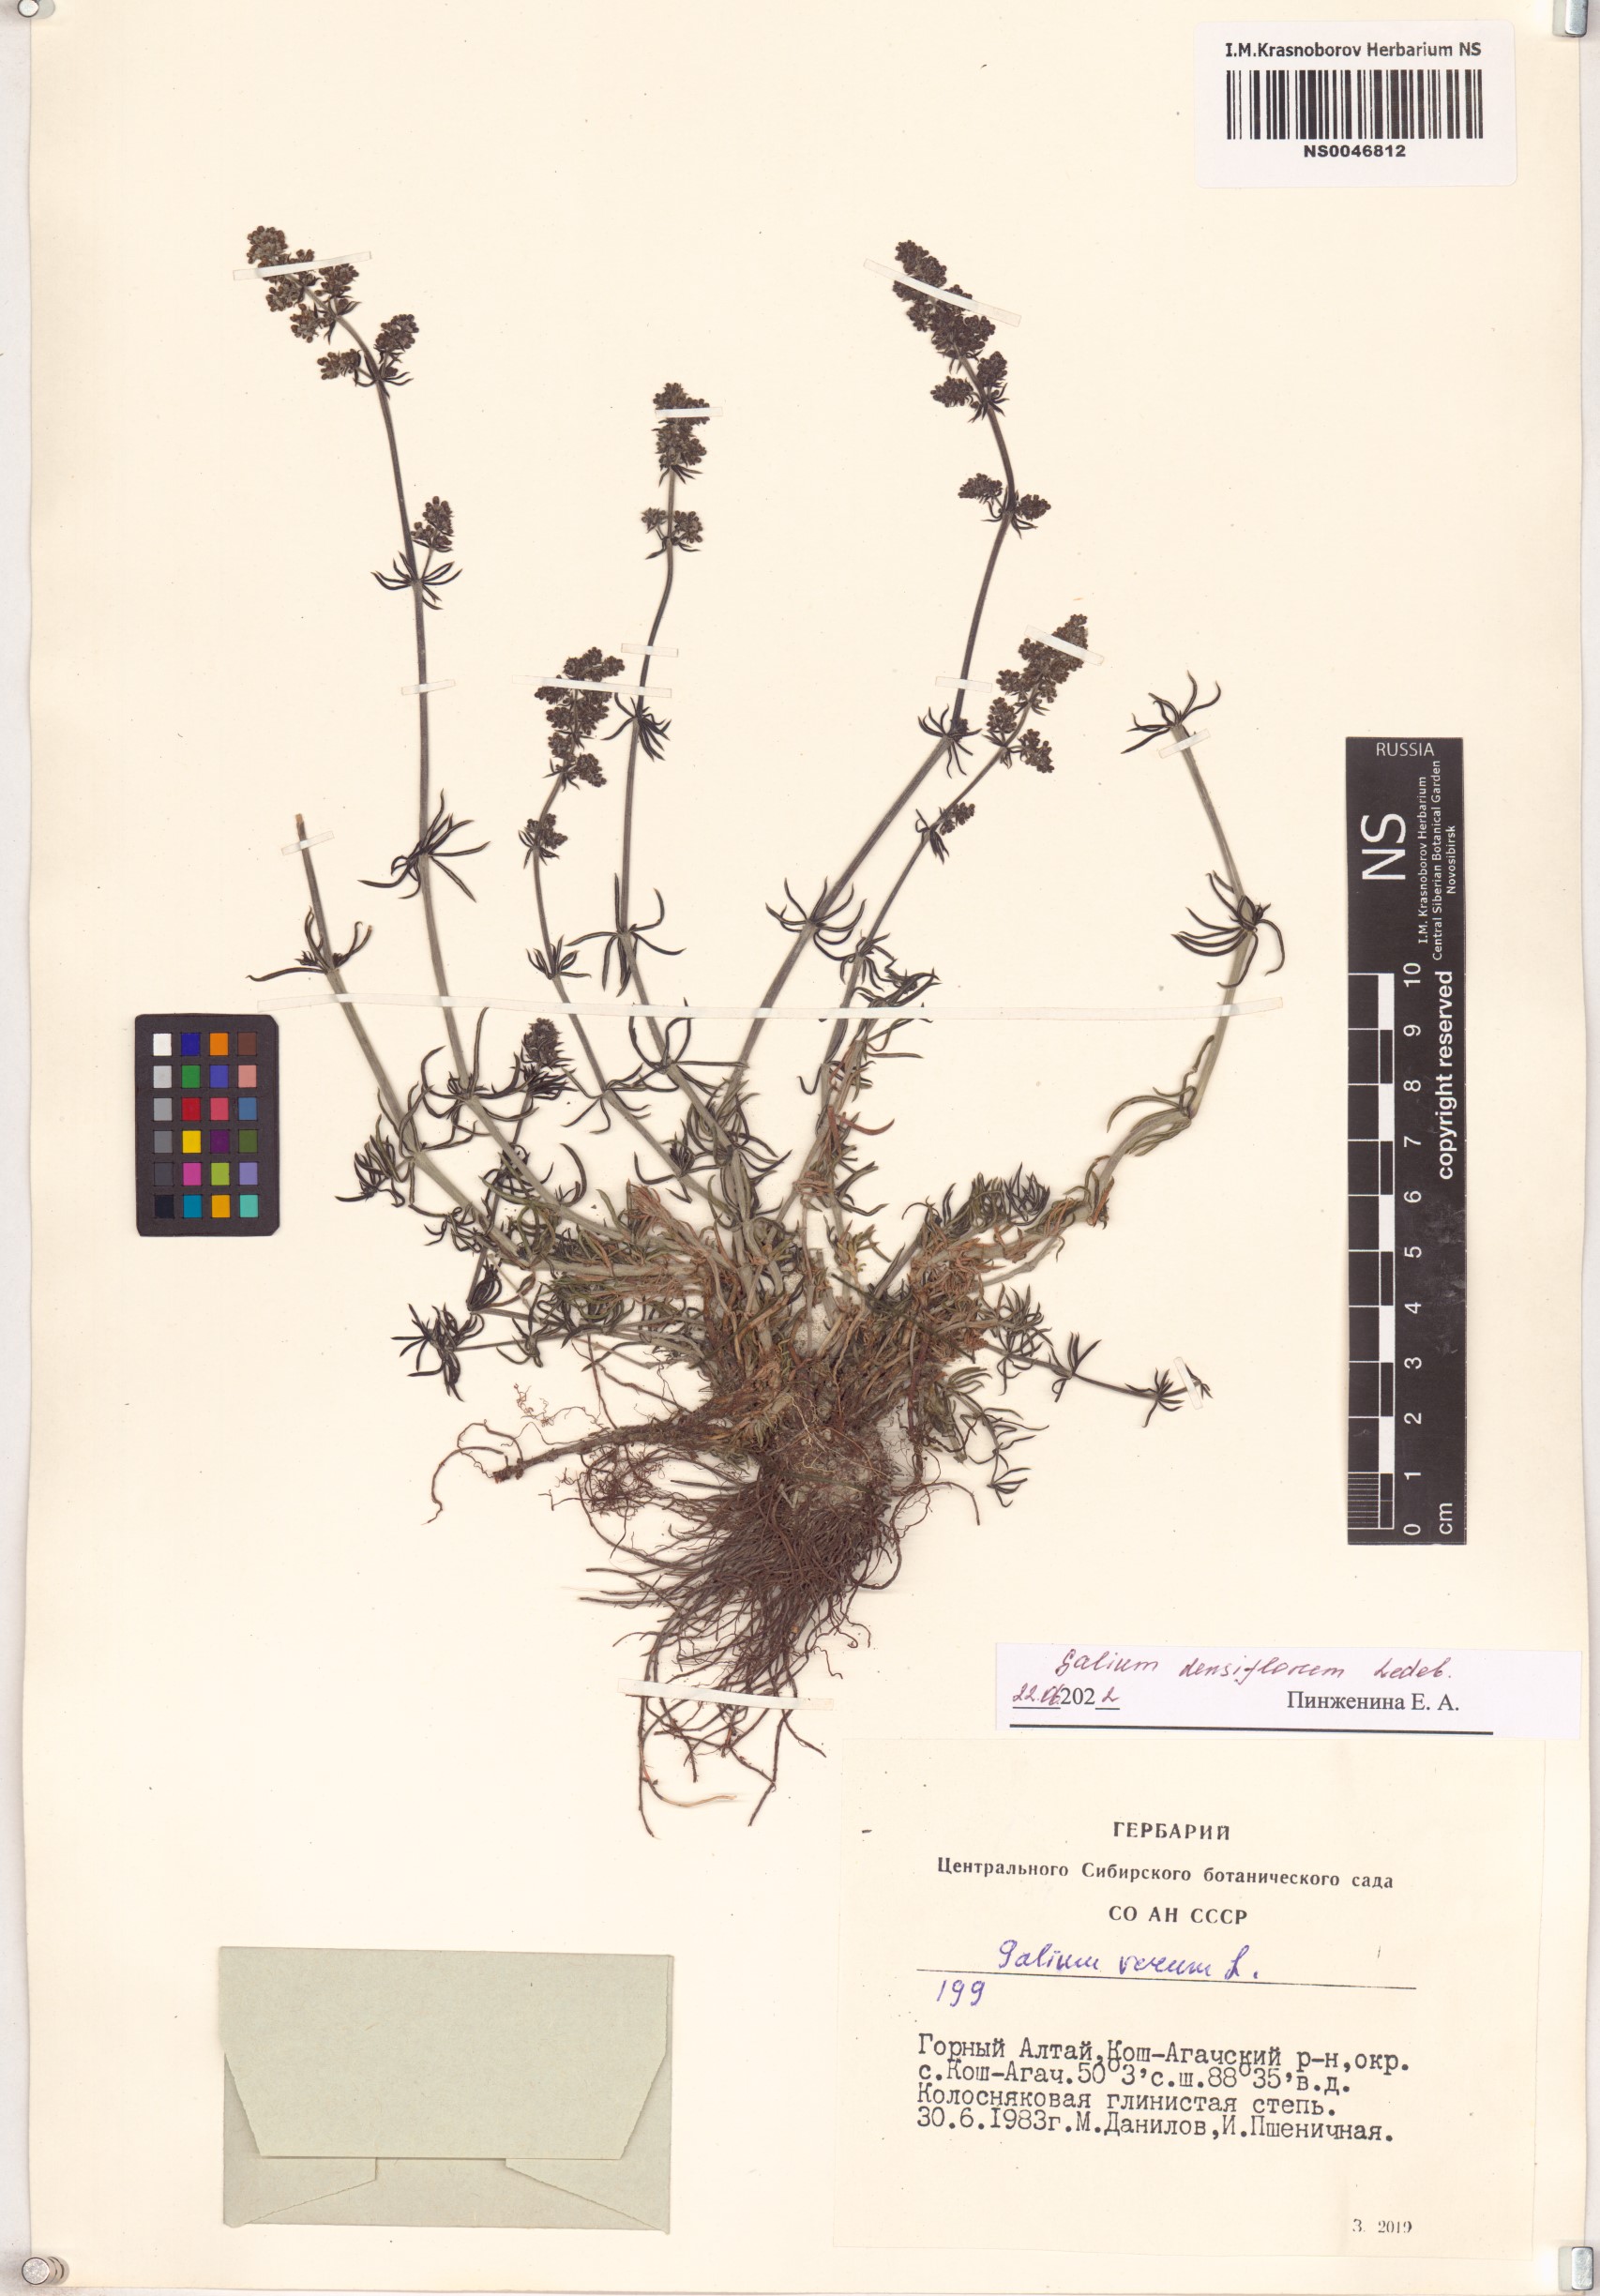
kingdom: Plantae
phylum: Tracheophyta
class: Magnoliopsida
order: Gentianales
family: Rubiaceae
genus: Galium
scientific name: Galium densiflorum
